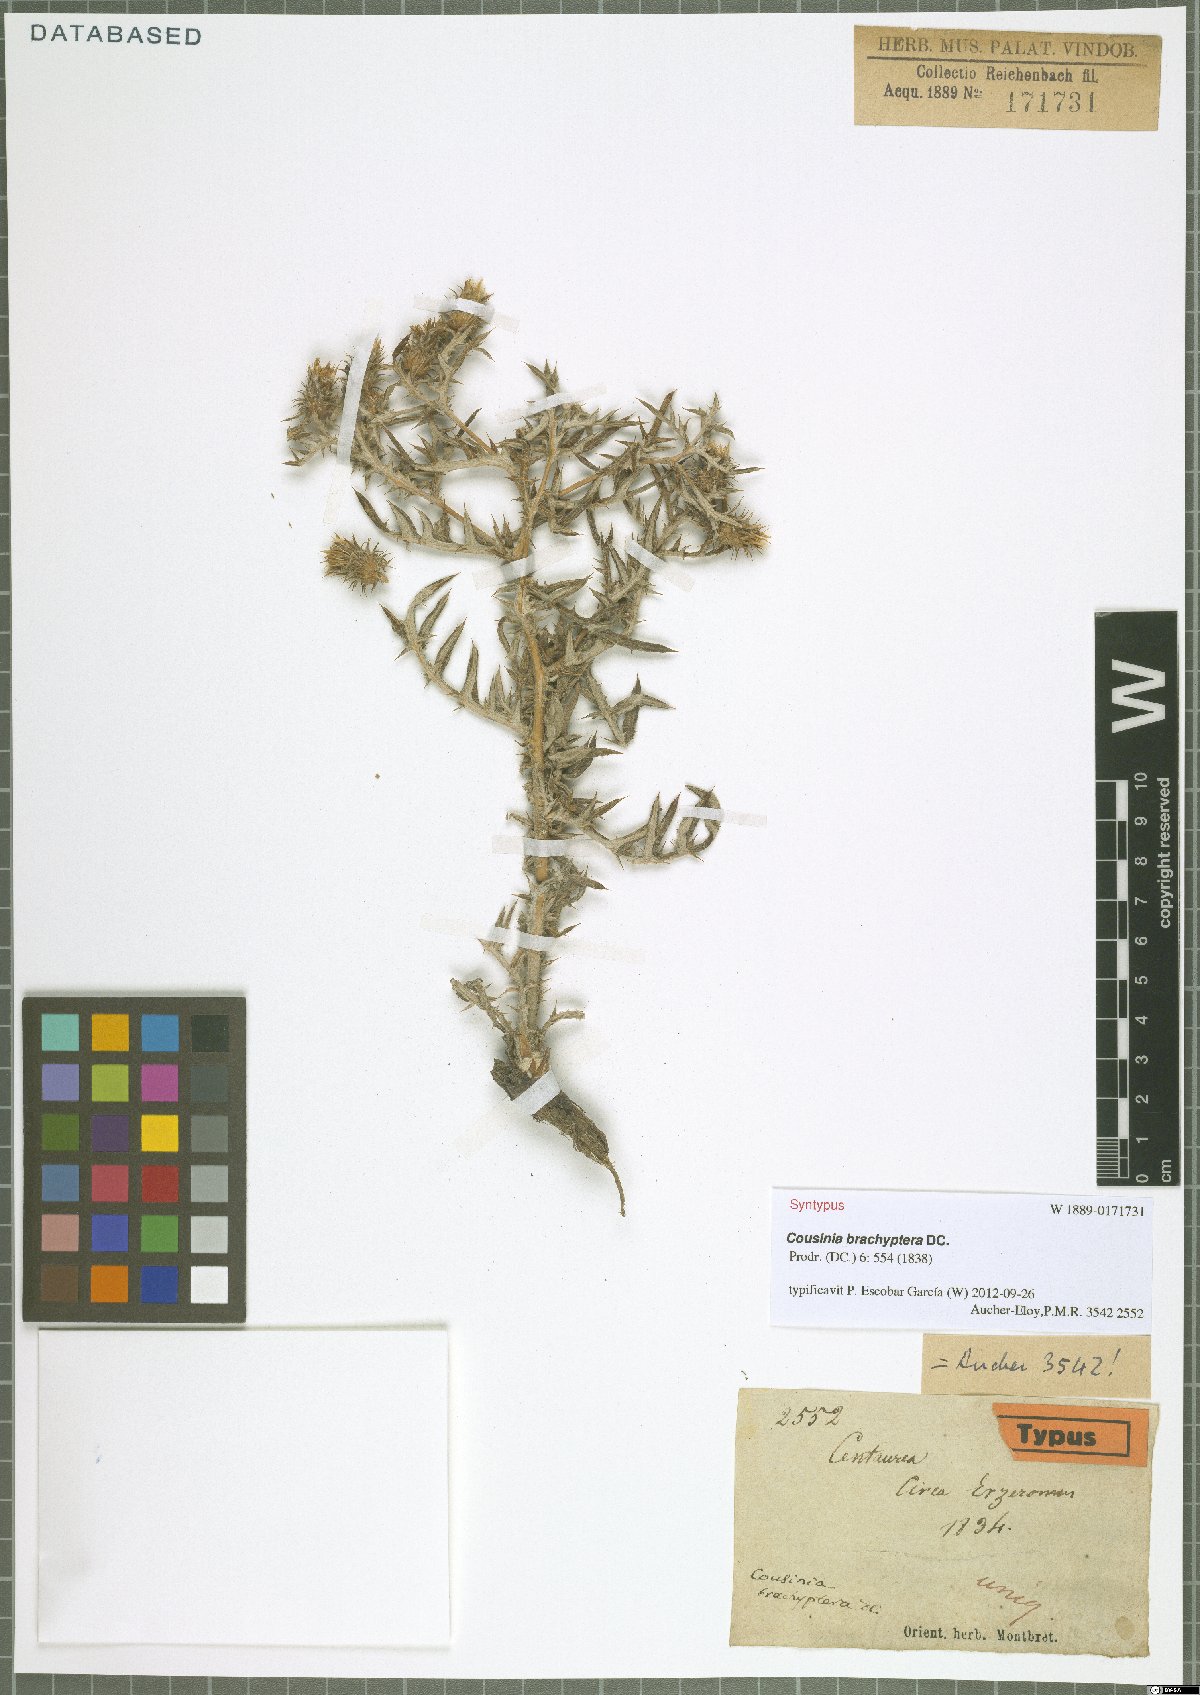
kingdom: Plantae
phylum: Tracheophyta
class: Magnoliopsida
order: Asterales
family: Asteraceae
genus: Cousinia
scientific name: Cousinia brachyptera
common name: Short-winged cousinia
